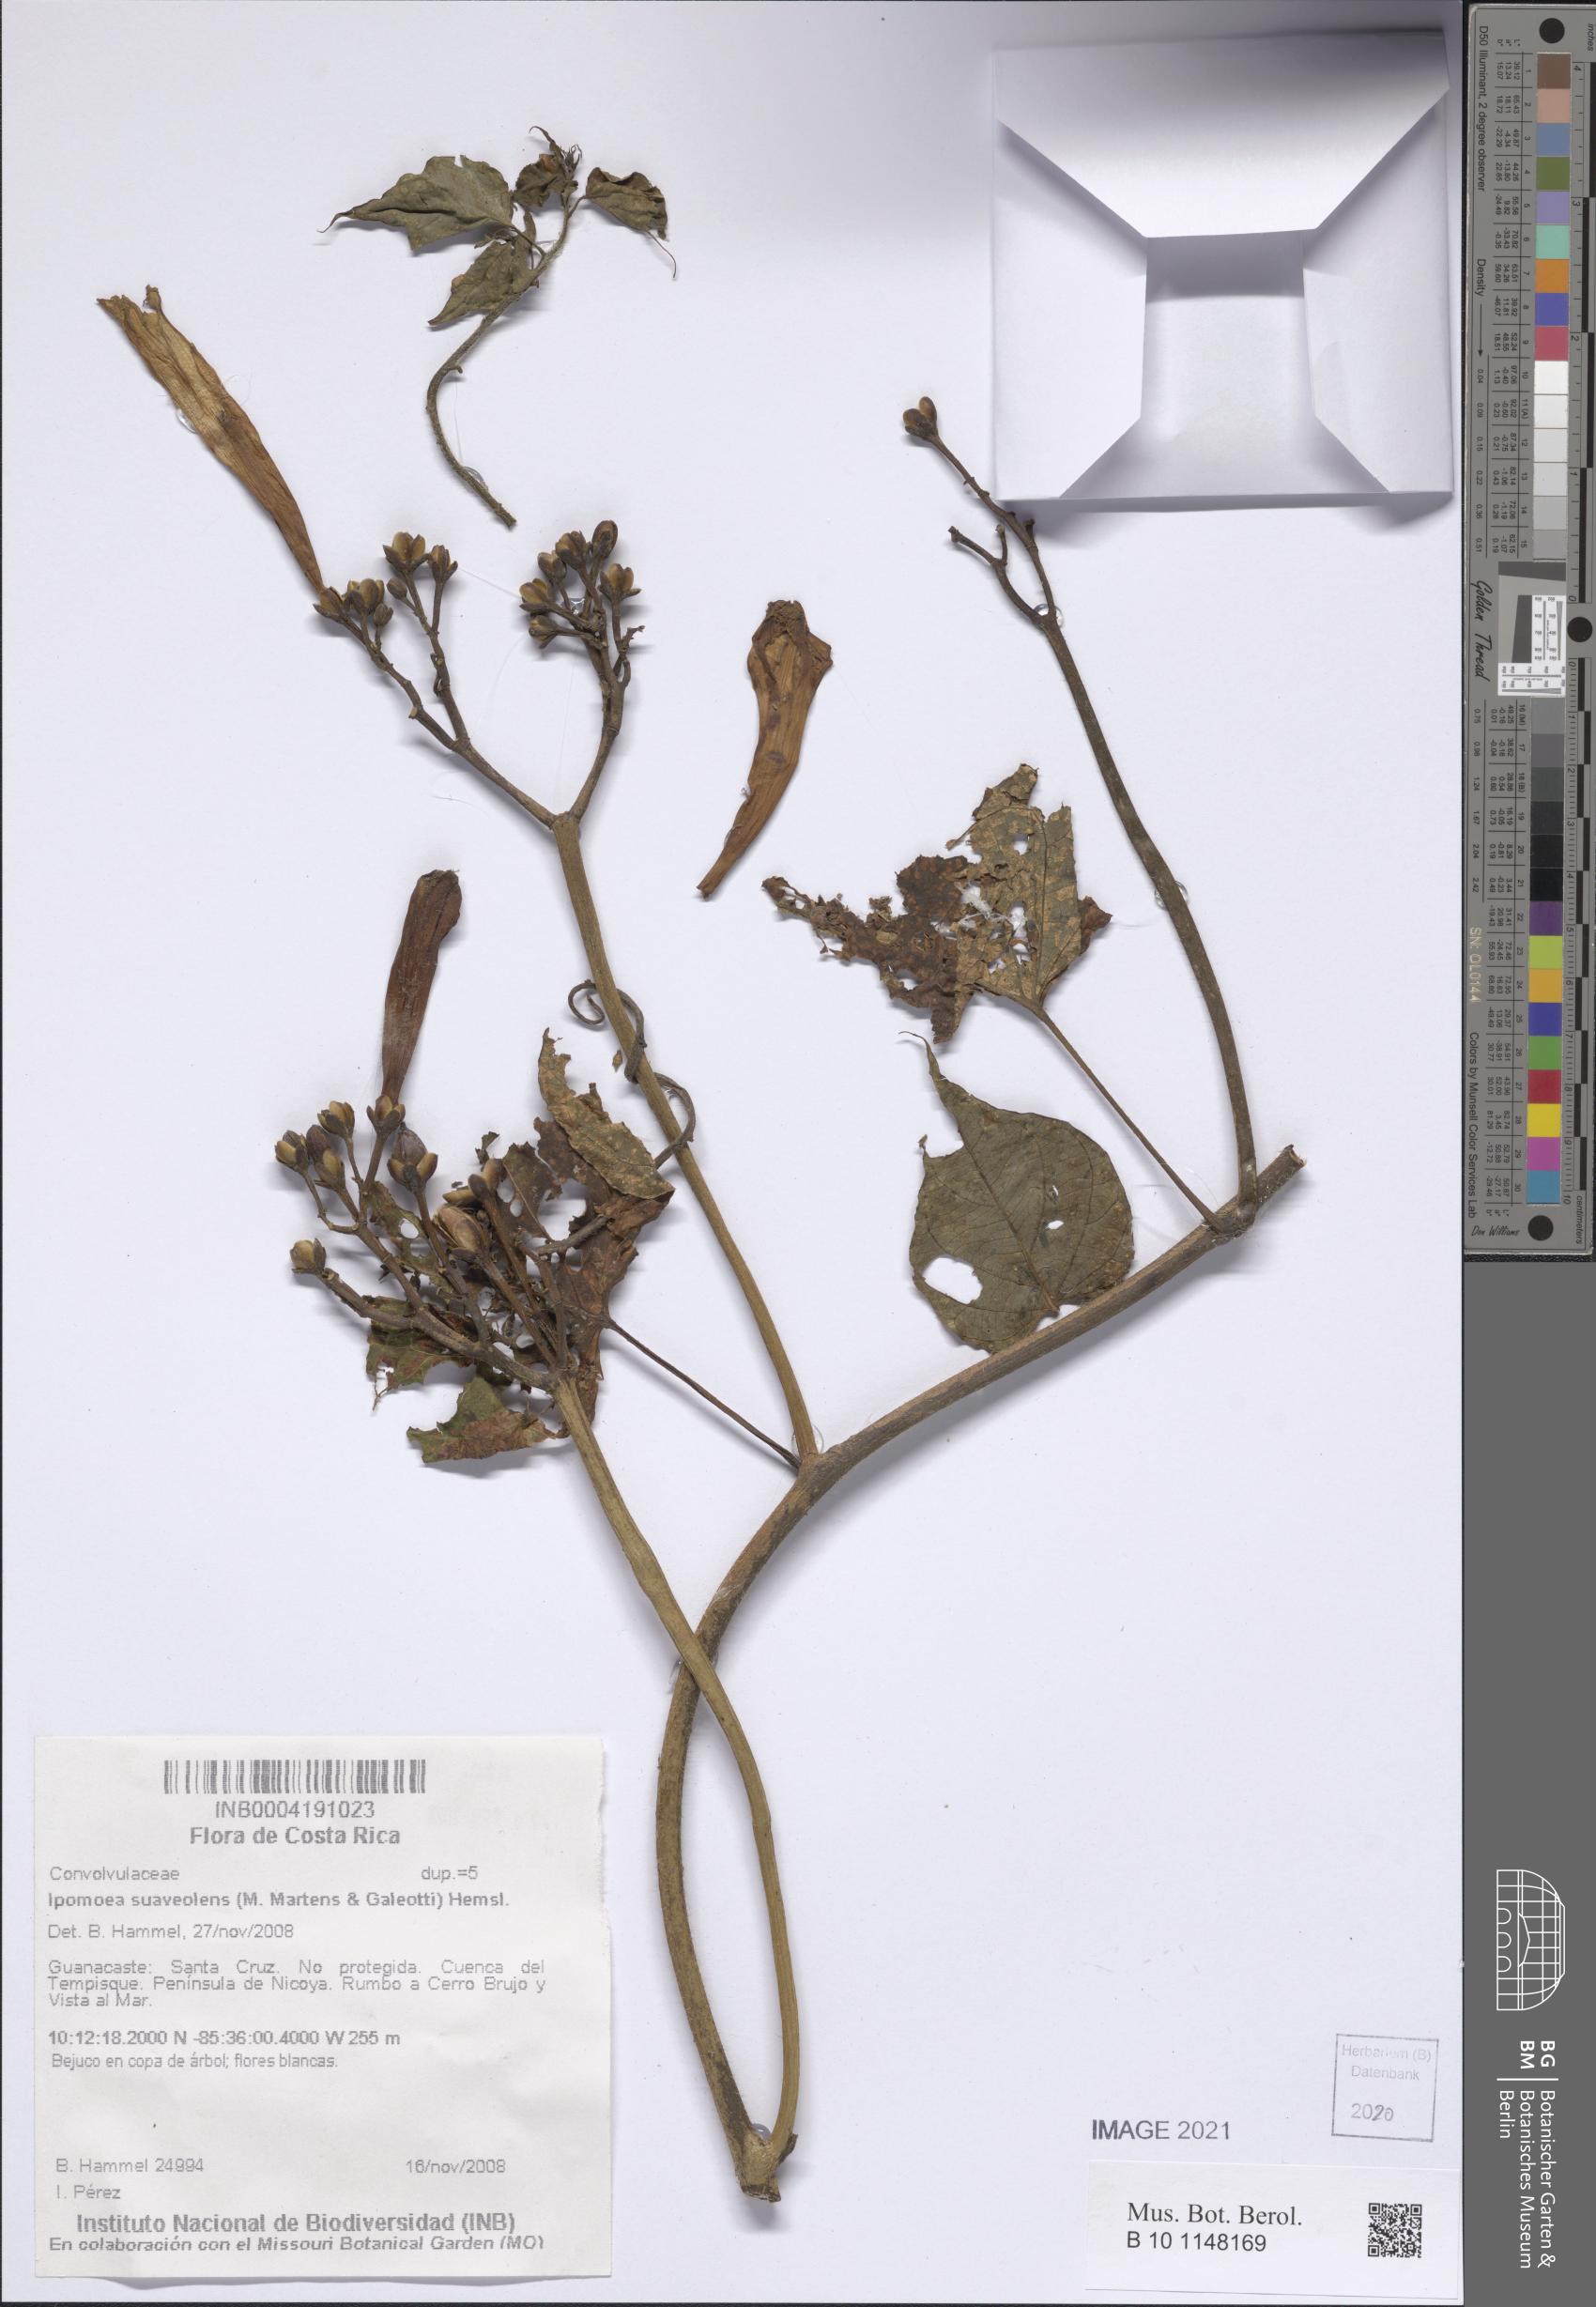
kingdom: Plantae
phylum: Tracheophyta
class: Magnoliopsida
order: Solanales
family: Convolvulaceae
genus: Ipomoea
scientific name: Ipomoea suaveolens
